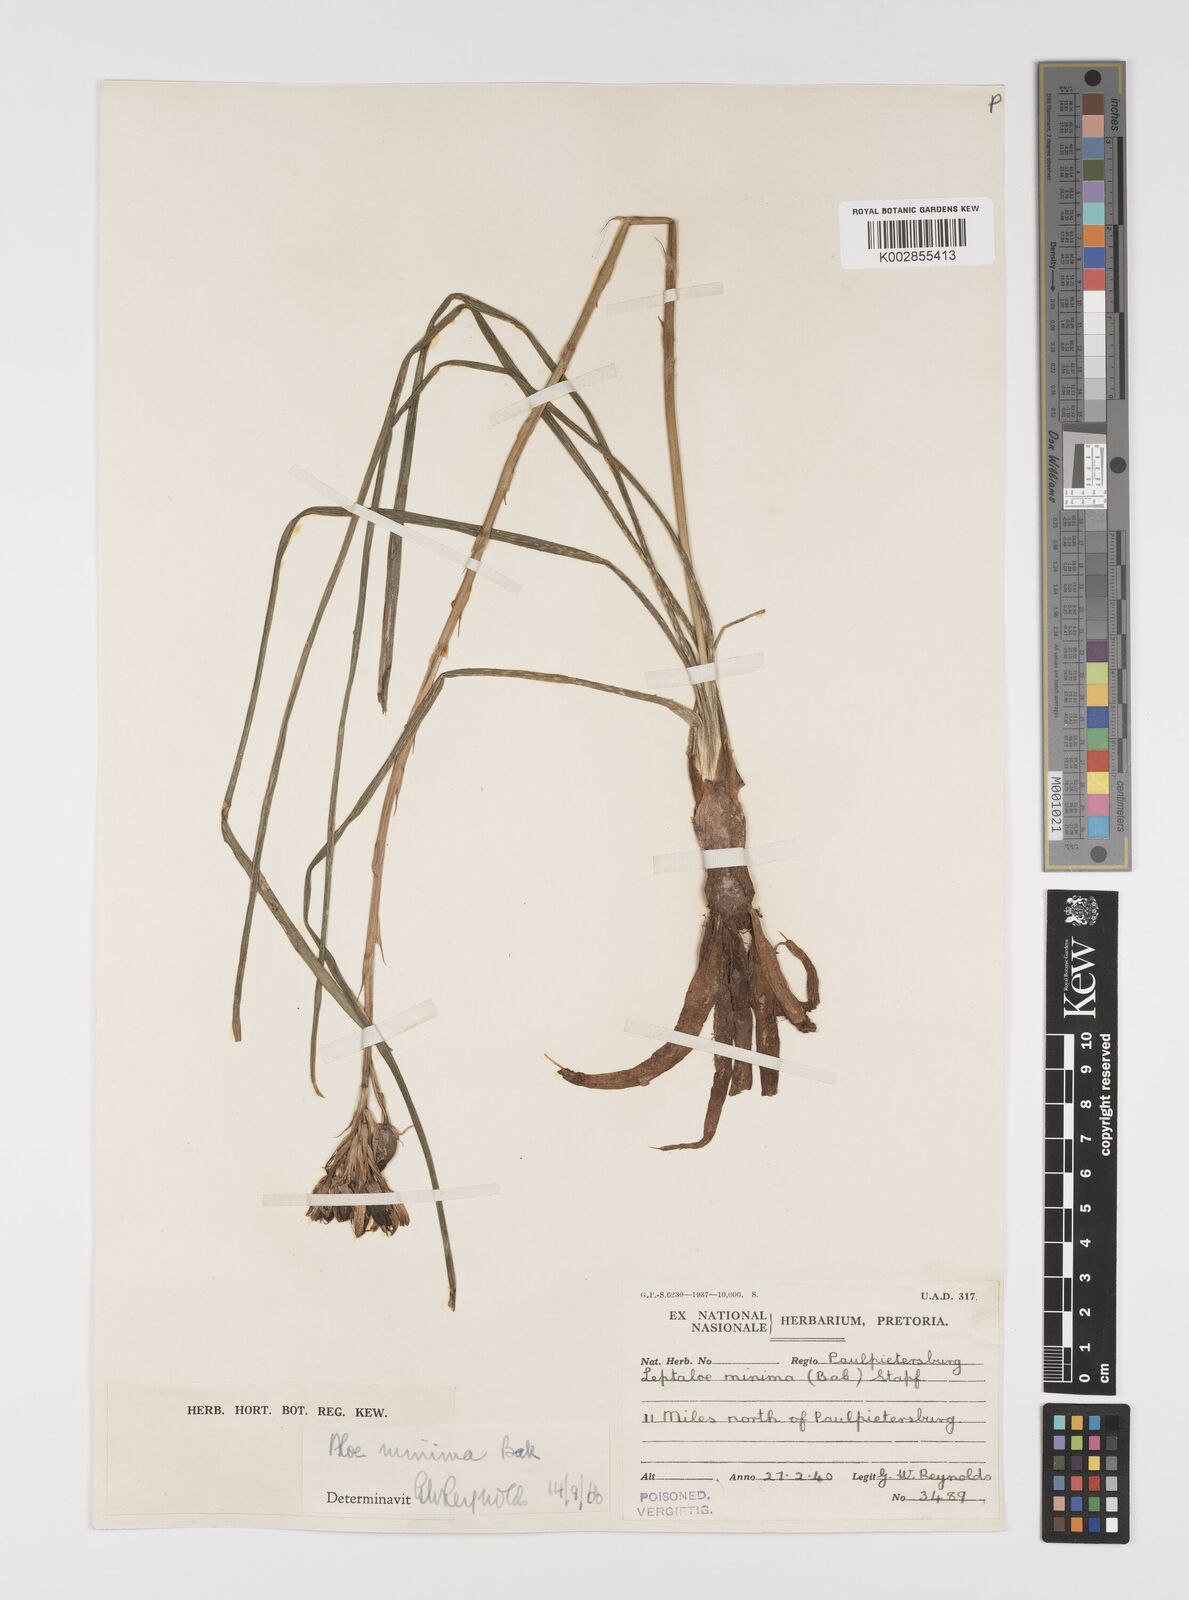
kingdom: Plantae
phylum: Tracheophyta
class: Liliopsida
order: Asparagales
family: Asphodelaceae
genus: Aloe
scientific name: Aloe minima
